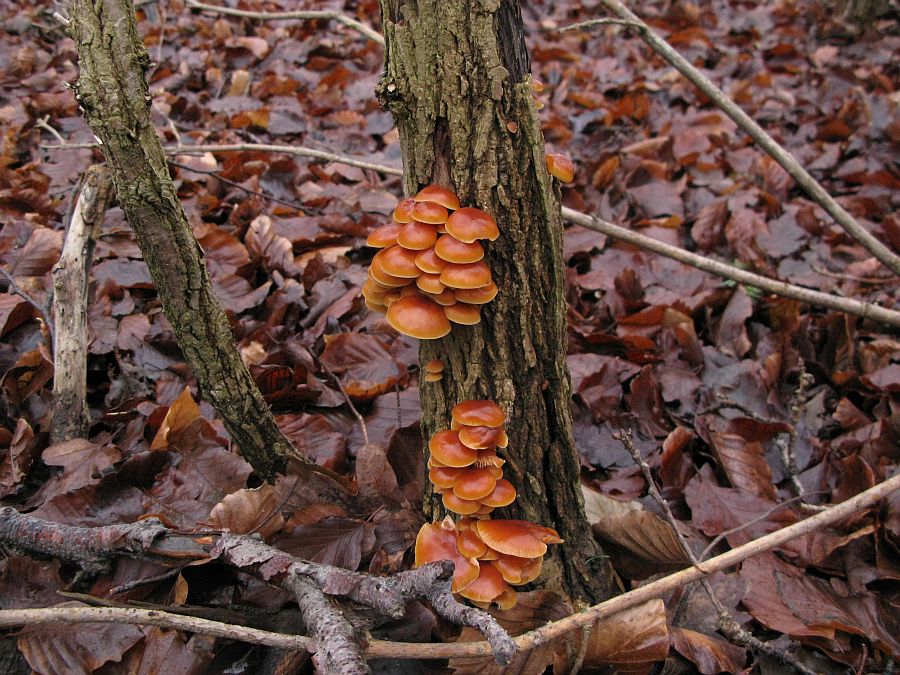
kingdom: Fungi
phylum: Basidiomycota
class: Agaricomycetes
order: Agaricales
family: Physalacriaceae
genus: Flammulina
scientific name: Flammulina velutipes
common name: gul fløjlsfod
